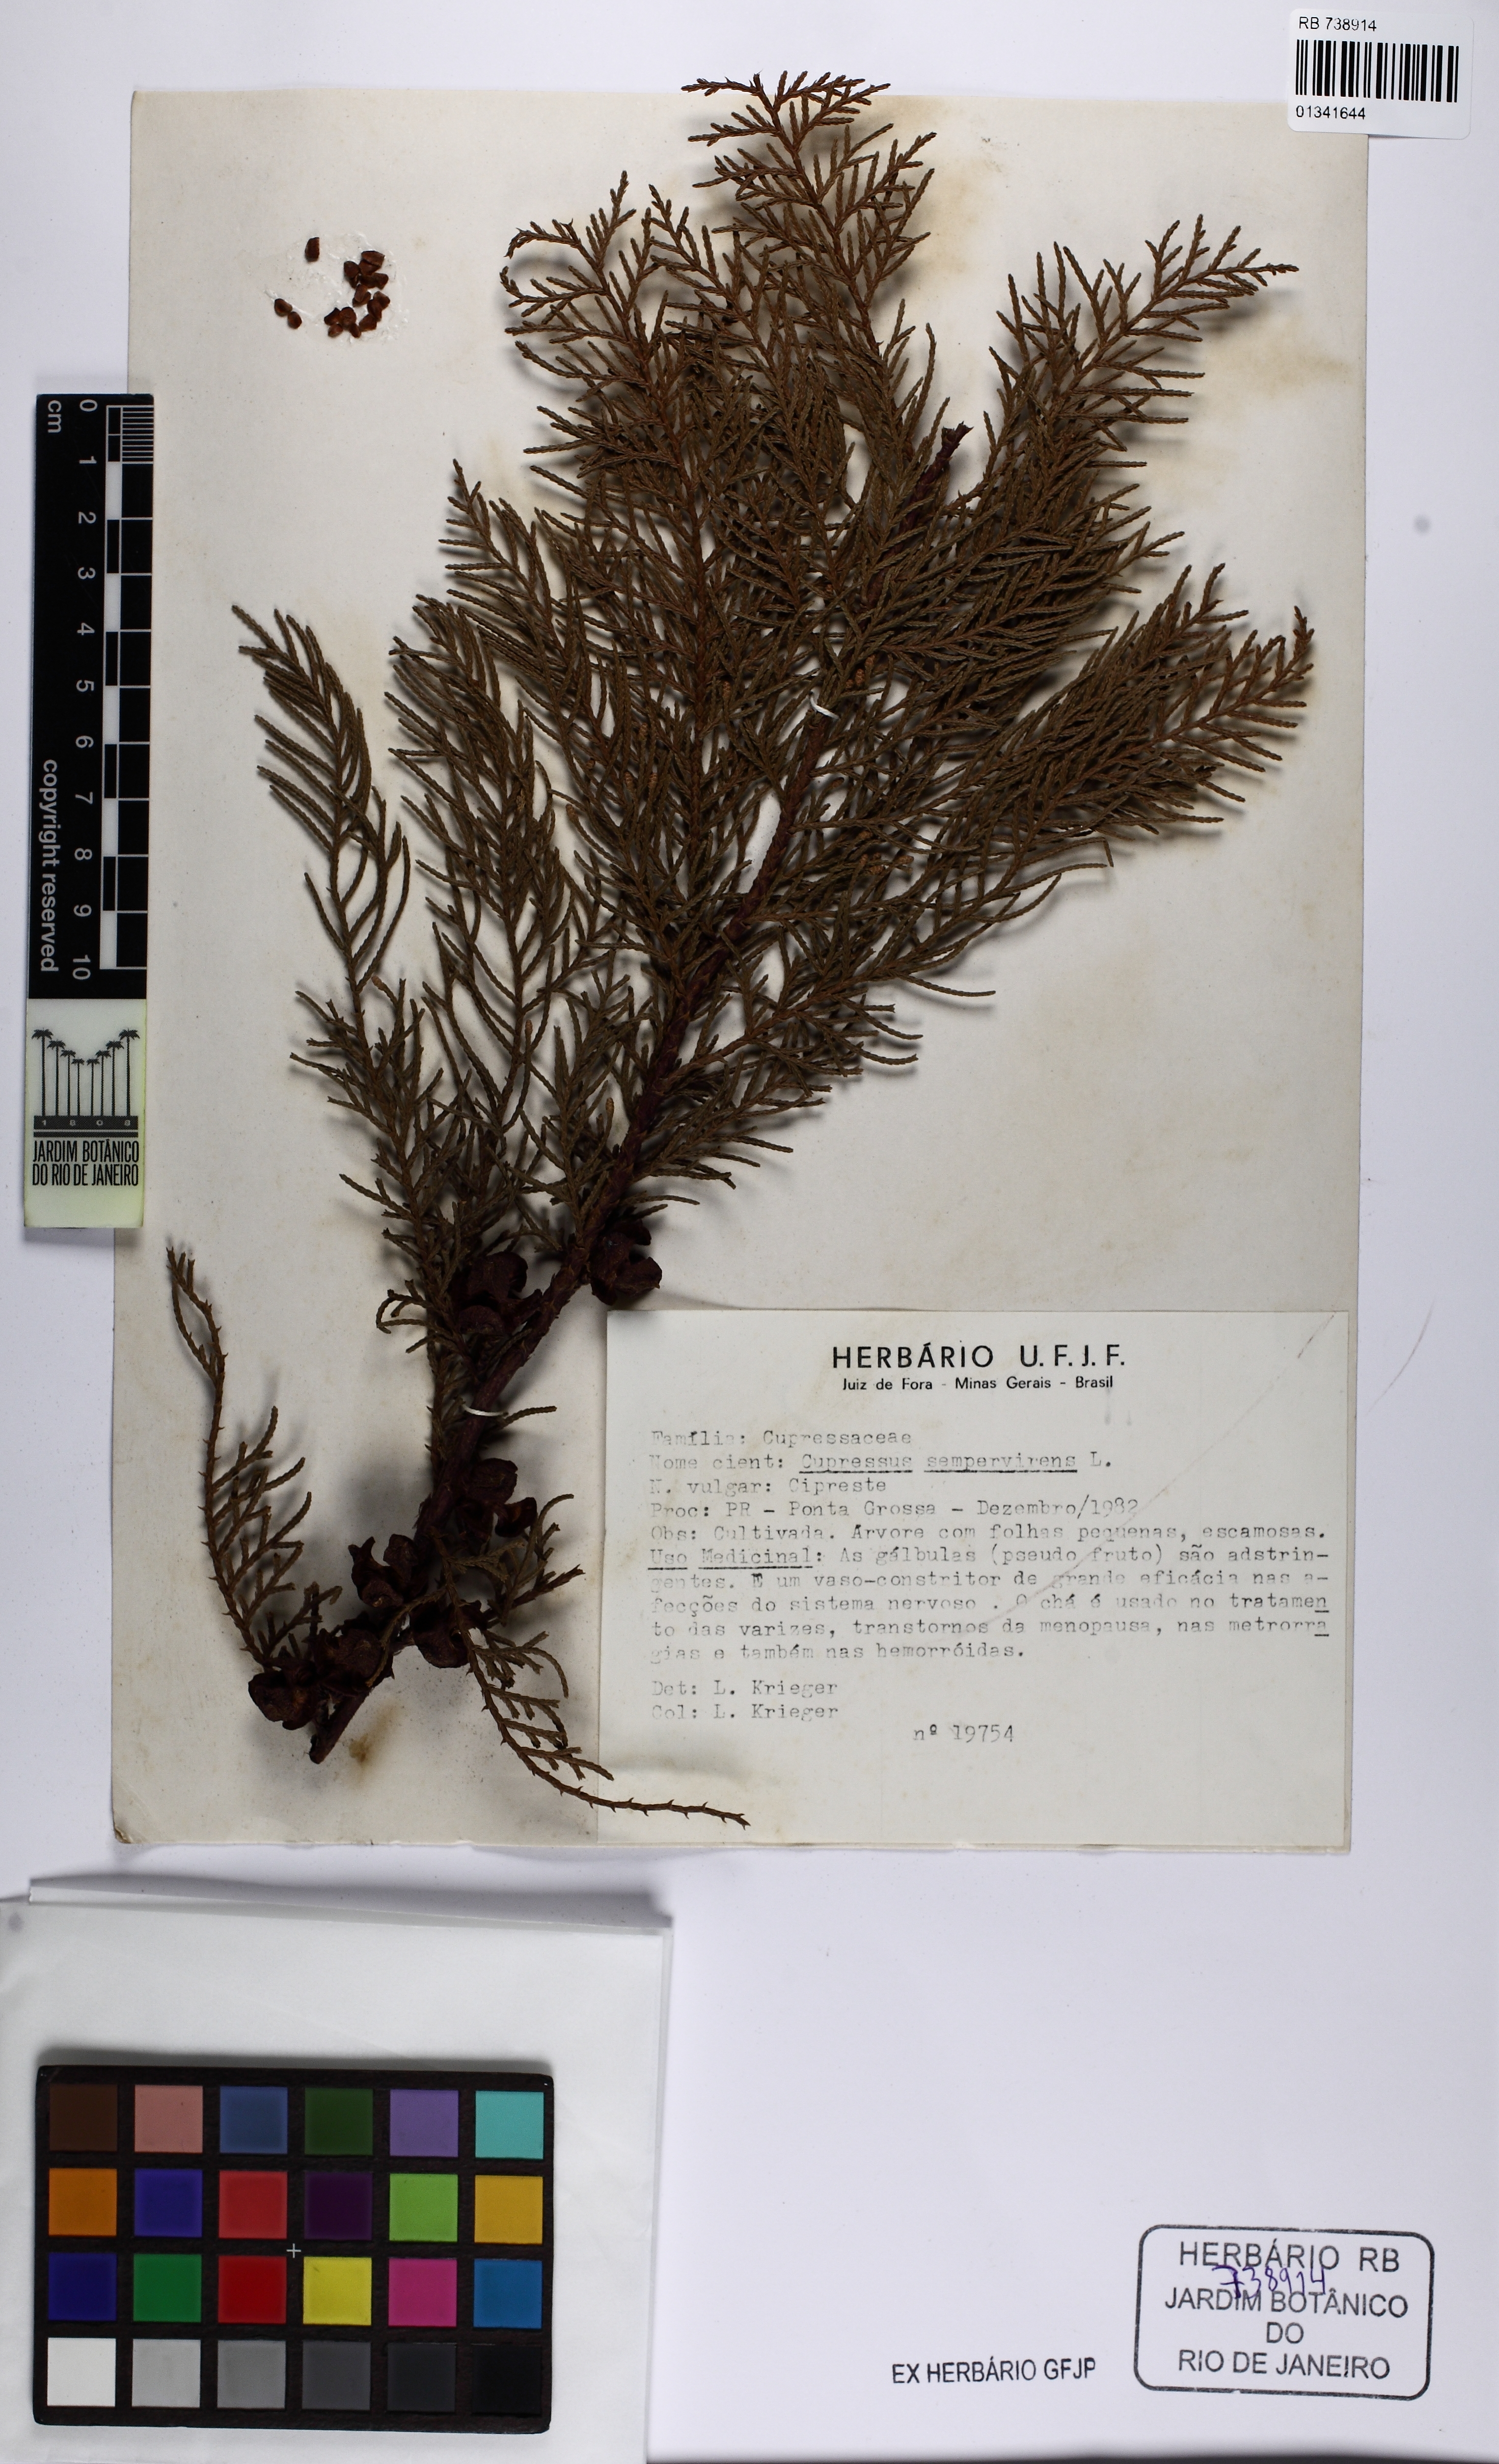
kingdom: Plantae
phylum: Tracheophyta
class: Pinopsida
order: Pinales
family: Cupressaceae
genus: Cupressus
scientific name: Cupressus sempervirens
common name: Italian cypress
